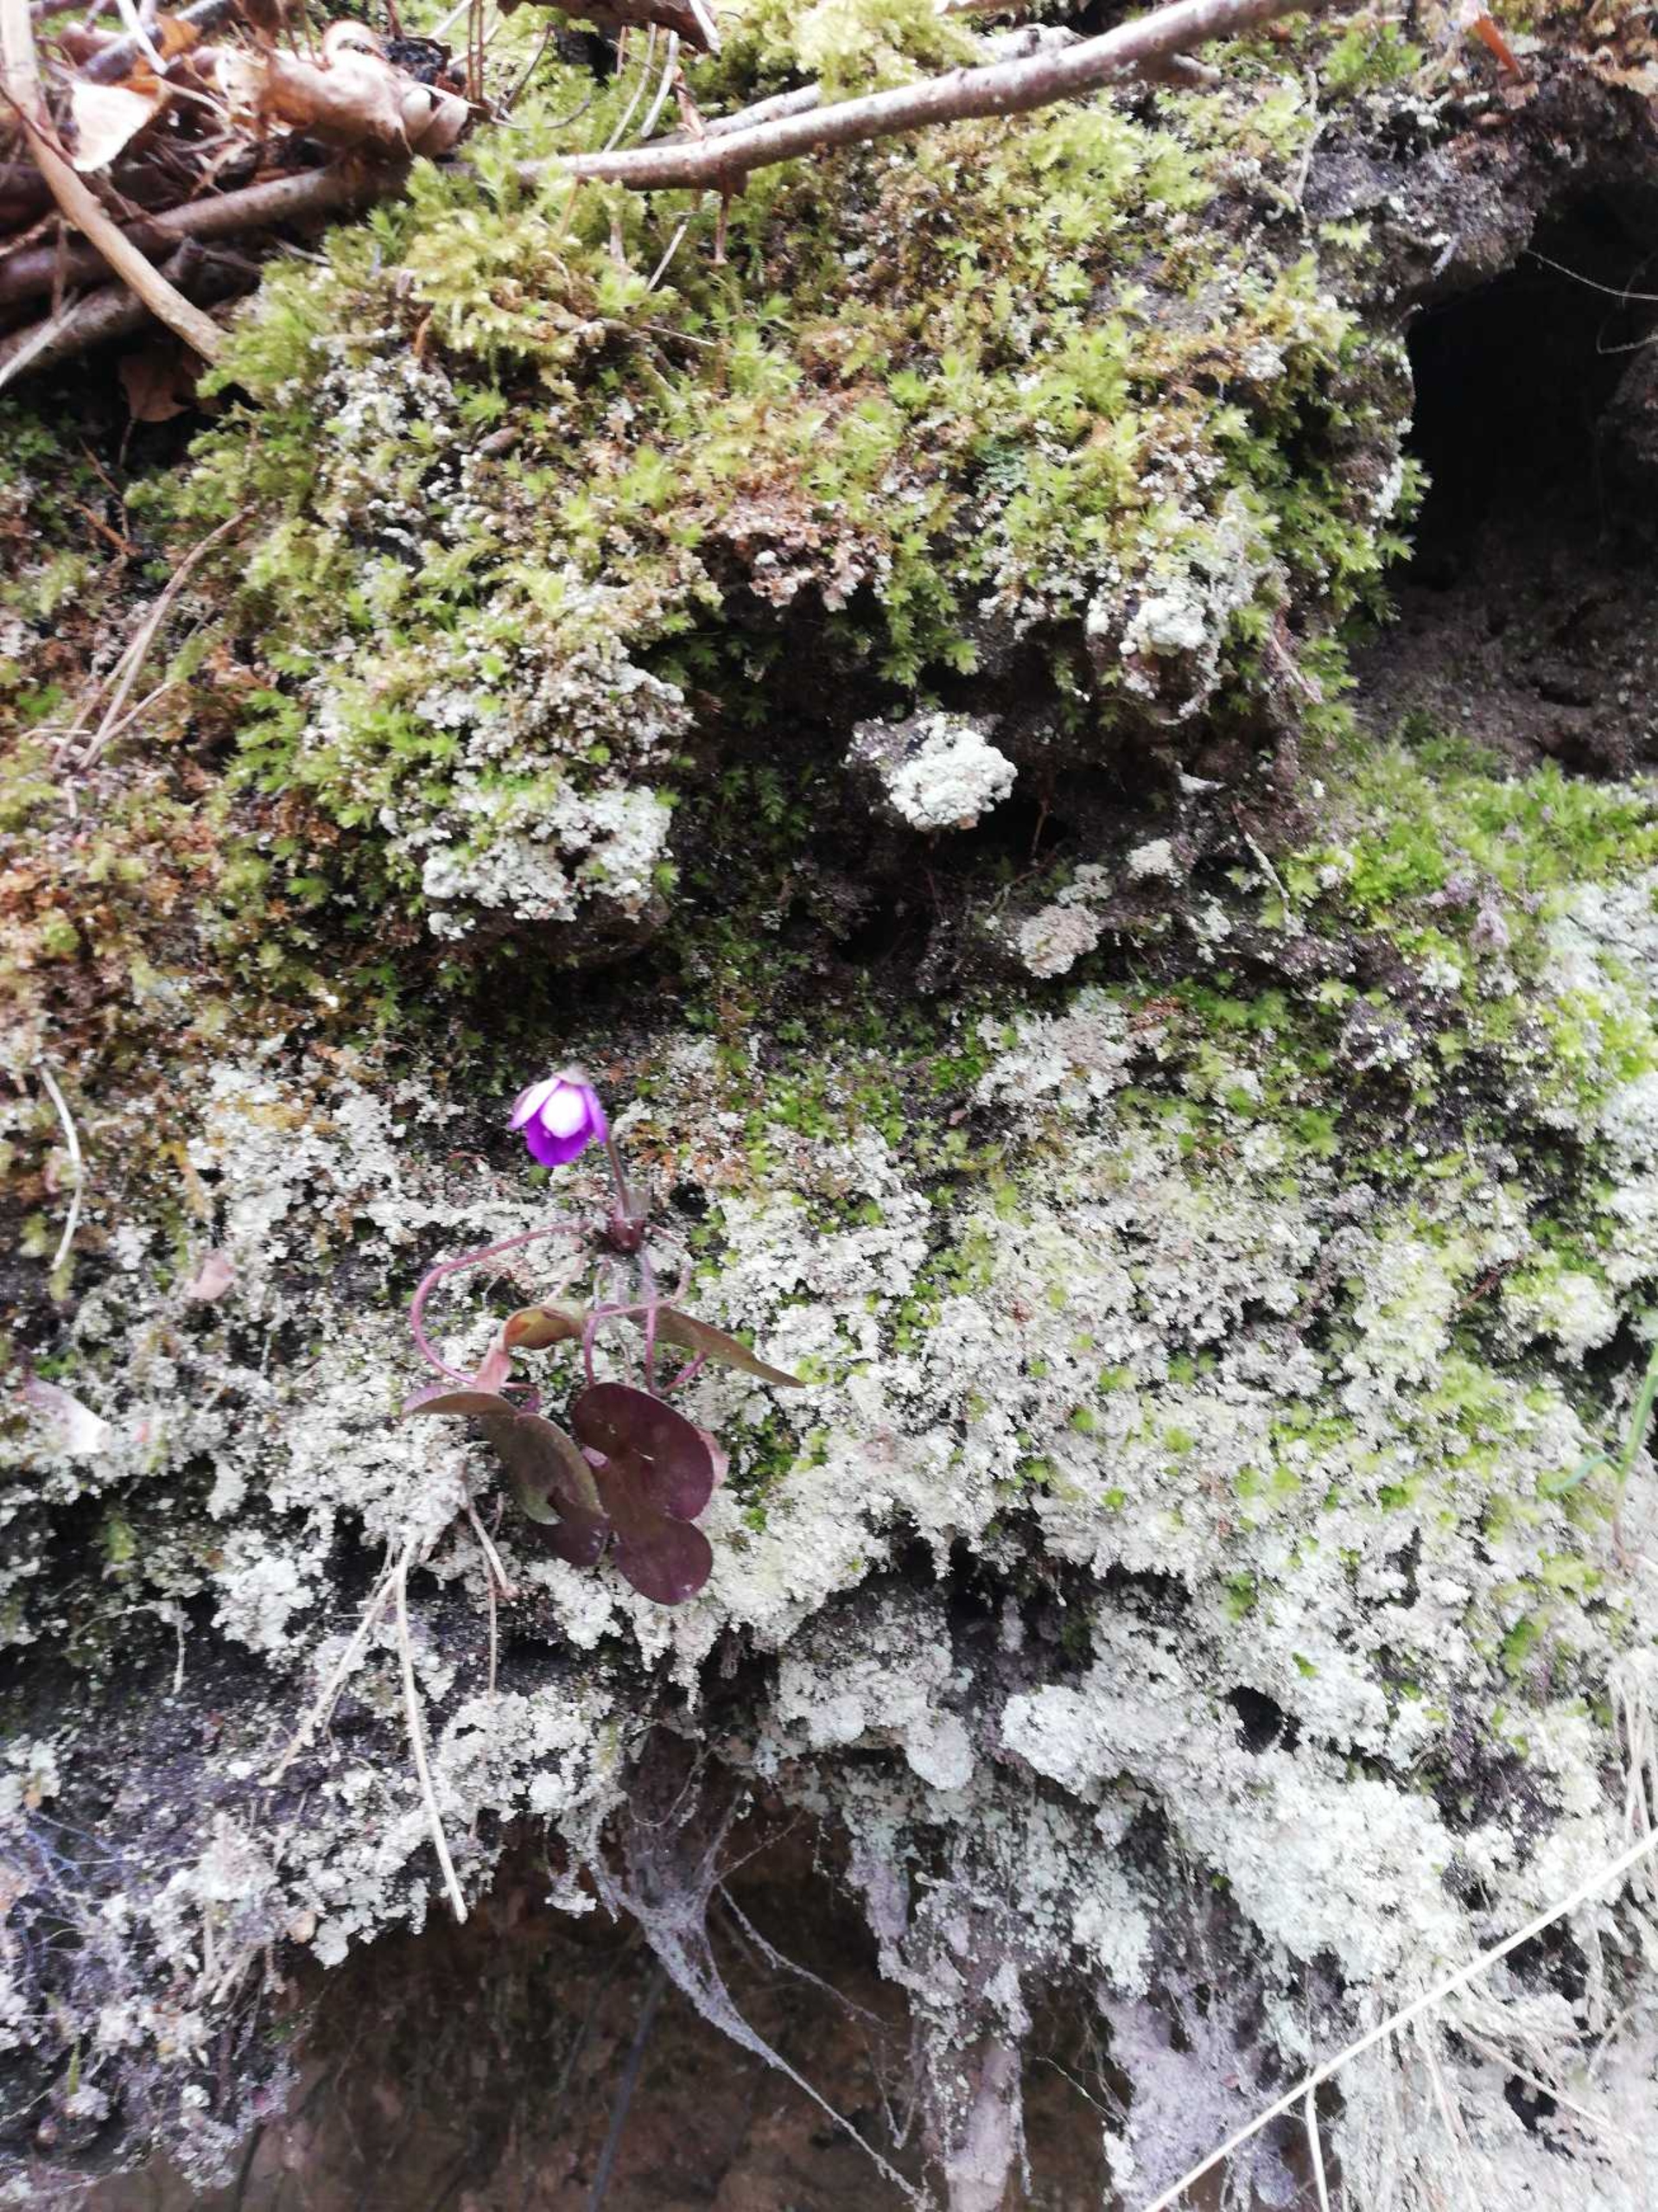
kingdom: Plantae
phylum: Tracheophyta
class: Magnoliopsida
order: Ranunculales
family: Ranunculaceae
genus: Hepatica
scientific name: Hepatica nobilis
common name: Blå anemone
